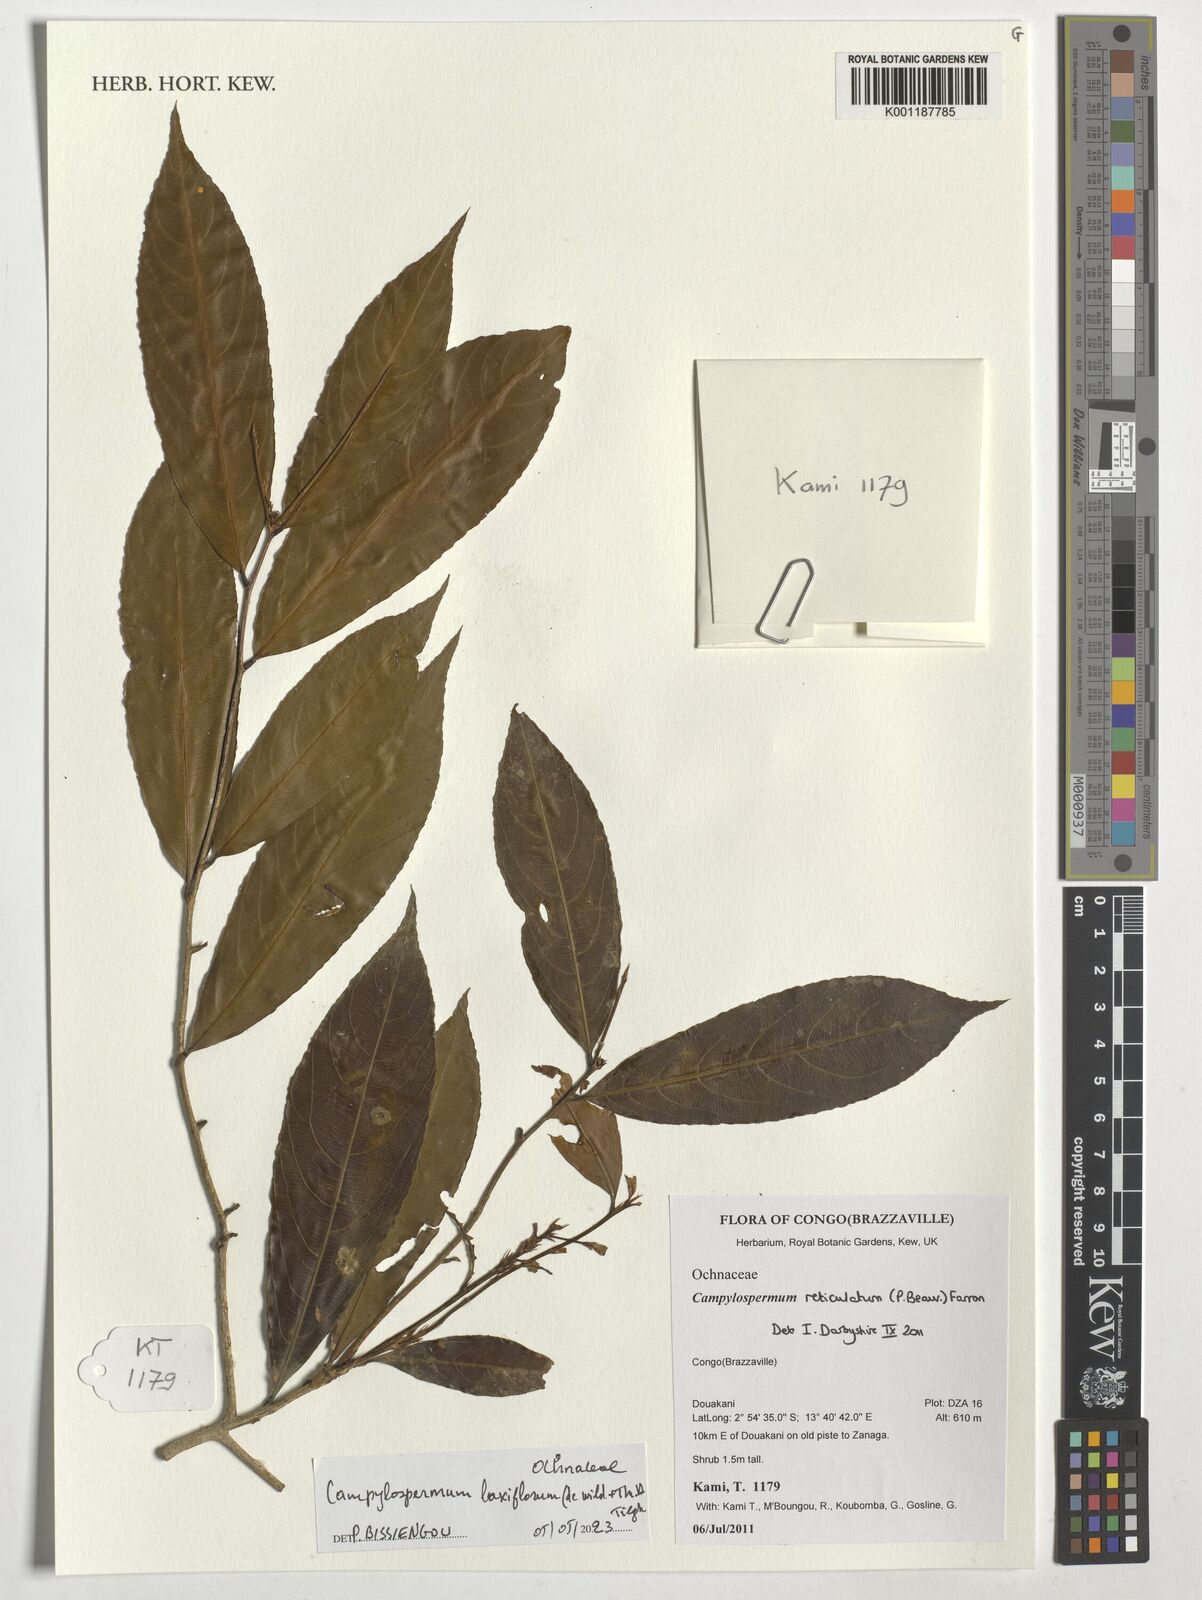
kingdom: Plantae
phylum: Tracheophyta
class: Magnoliopsida
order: Malpighiales
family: Ochnaceae
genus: Campylospermum
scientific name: Campylospermum laxiflorum
